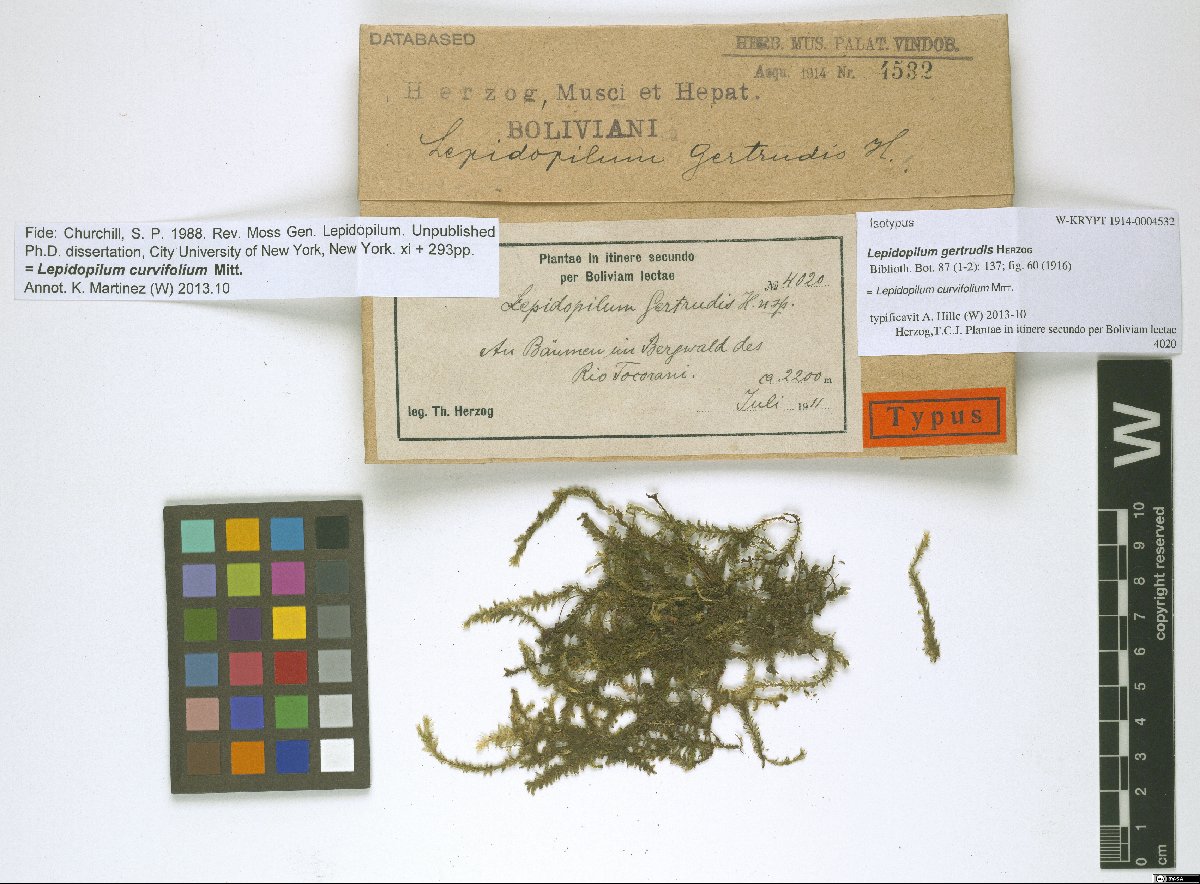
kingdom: Plantae
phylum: Bryophyta
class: Bryopsida
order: Hookeriales
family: Pilotrichaceae
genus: Lepidopilum
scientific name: Lepidopilum curvifolium
